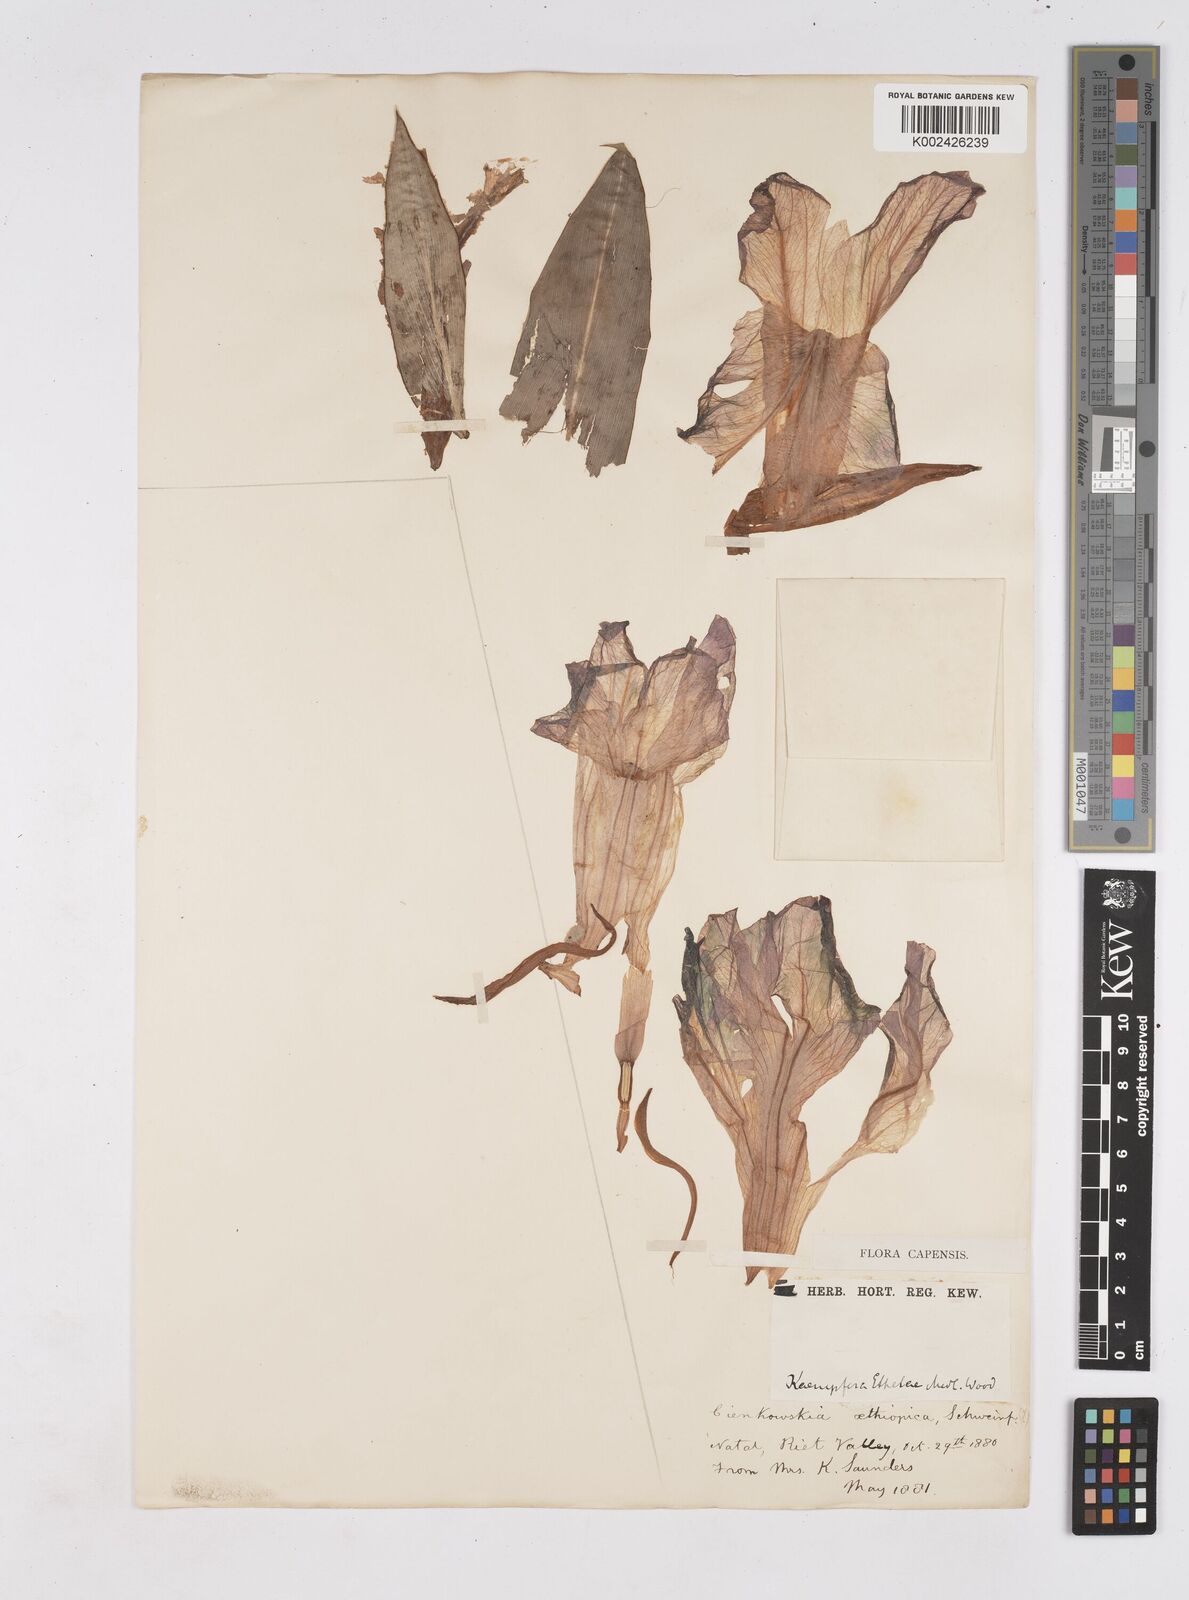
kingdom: Plantae
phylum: Tracheophyta
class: Liliopsida
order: Zingiberales
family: Zingiberaceae
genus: Siphonochilus
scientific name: Siphonochilus
